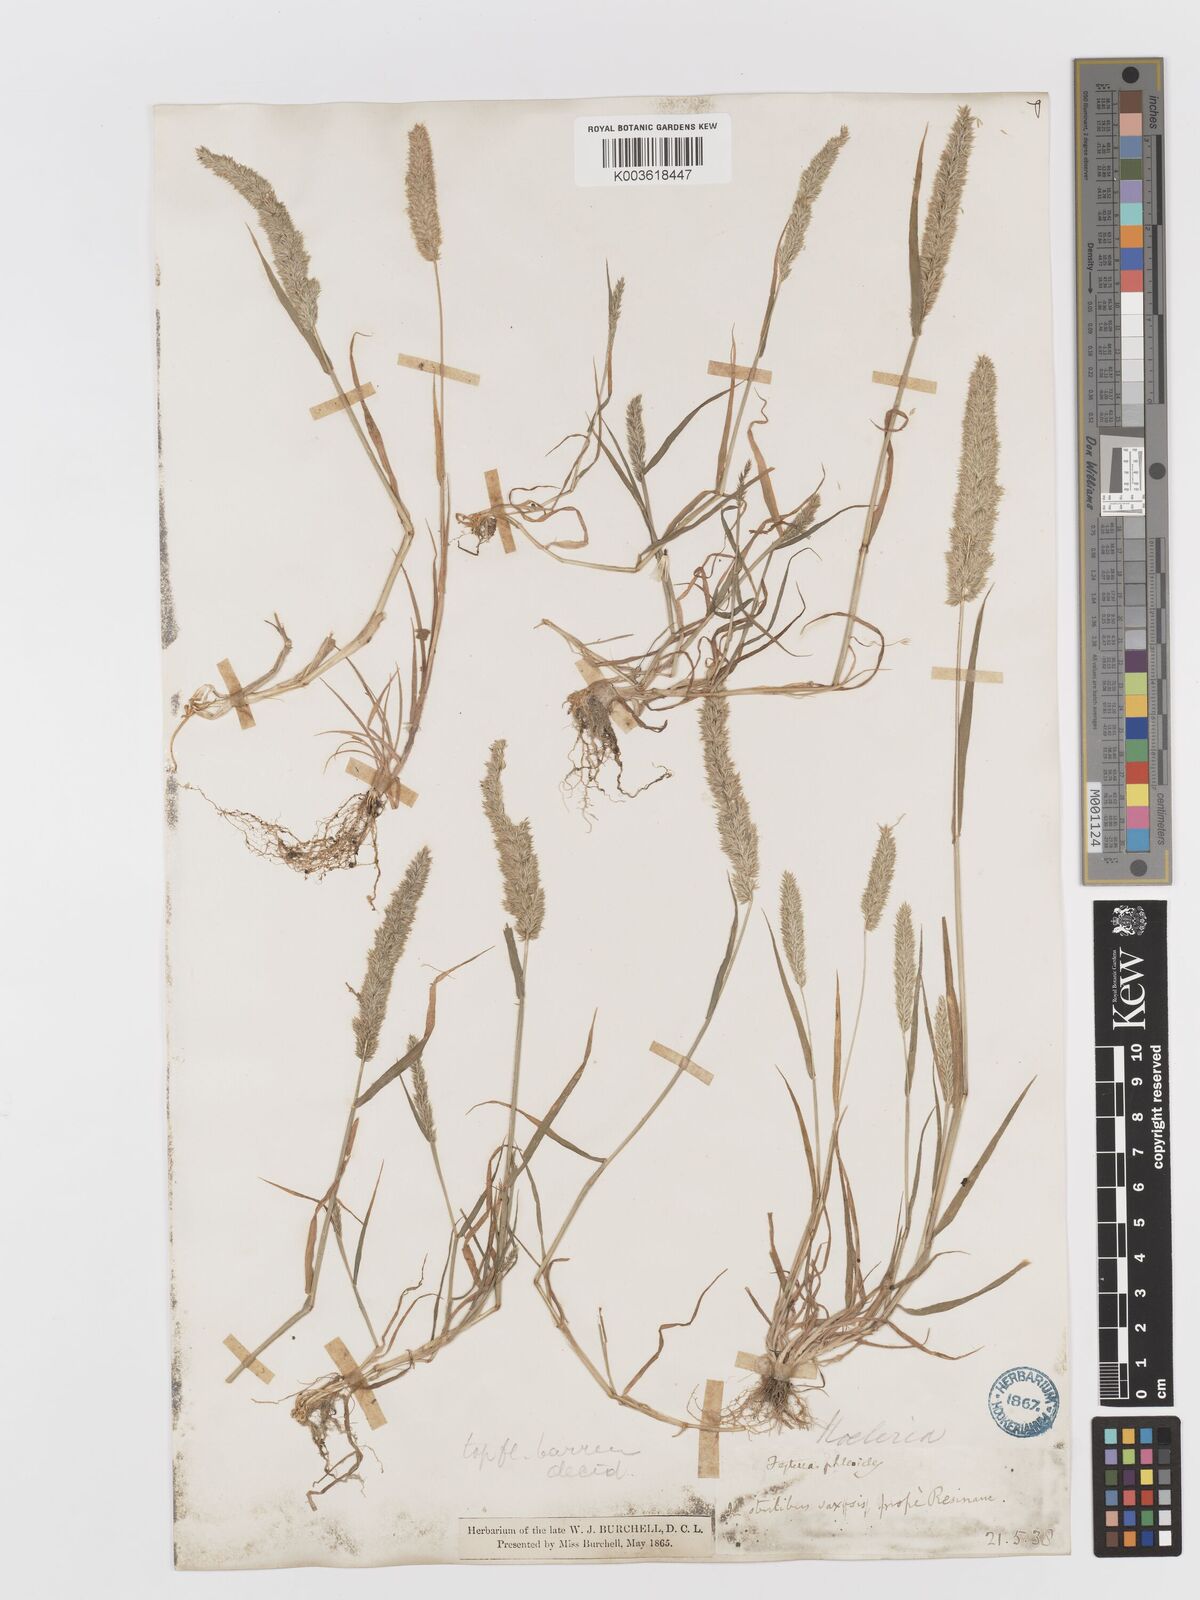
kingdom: Plantae
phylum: Tracheophyta
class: Liliopsida
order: Poales
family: Poaceae
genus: Rostraria
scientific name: Rostraria cristata
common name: Mediterranean hair-grass
